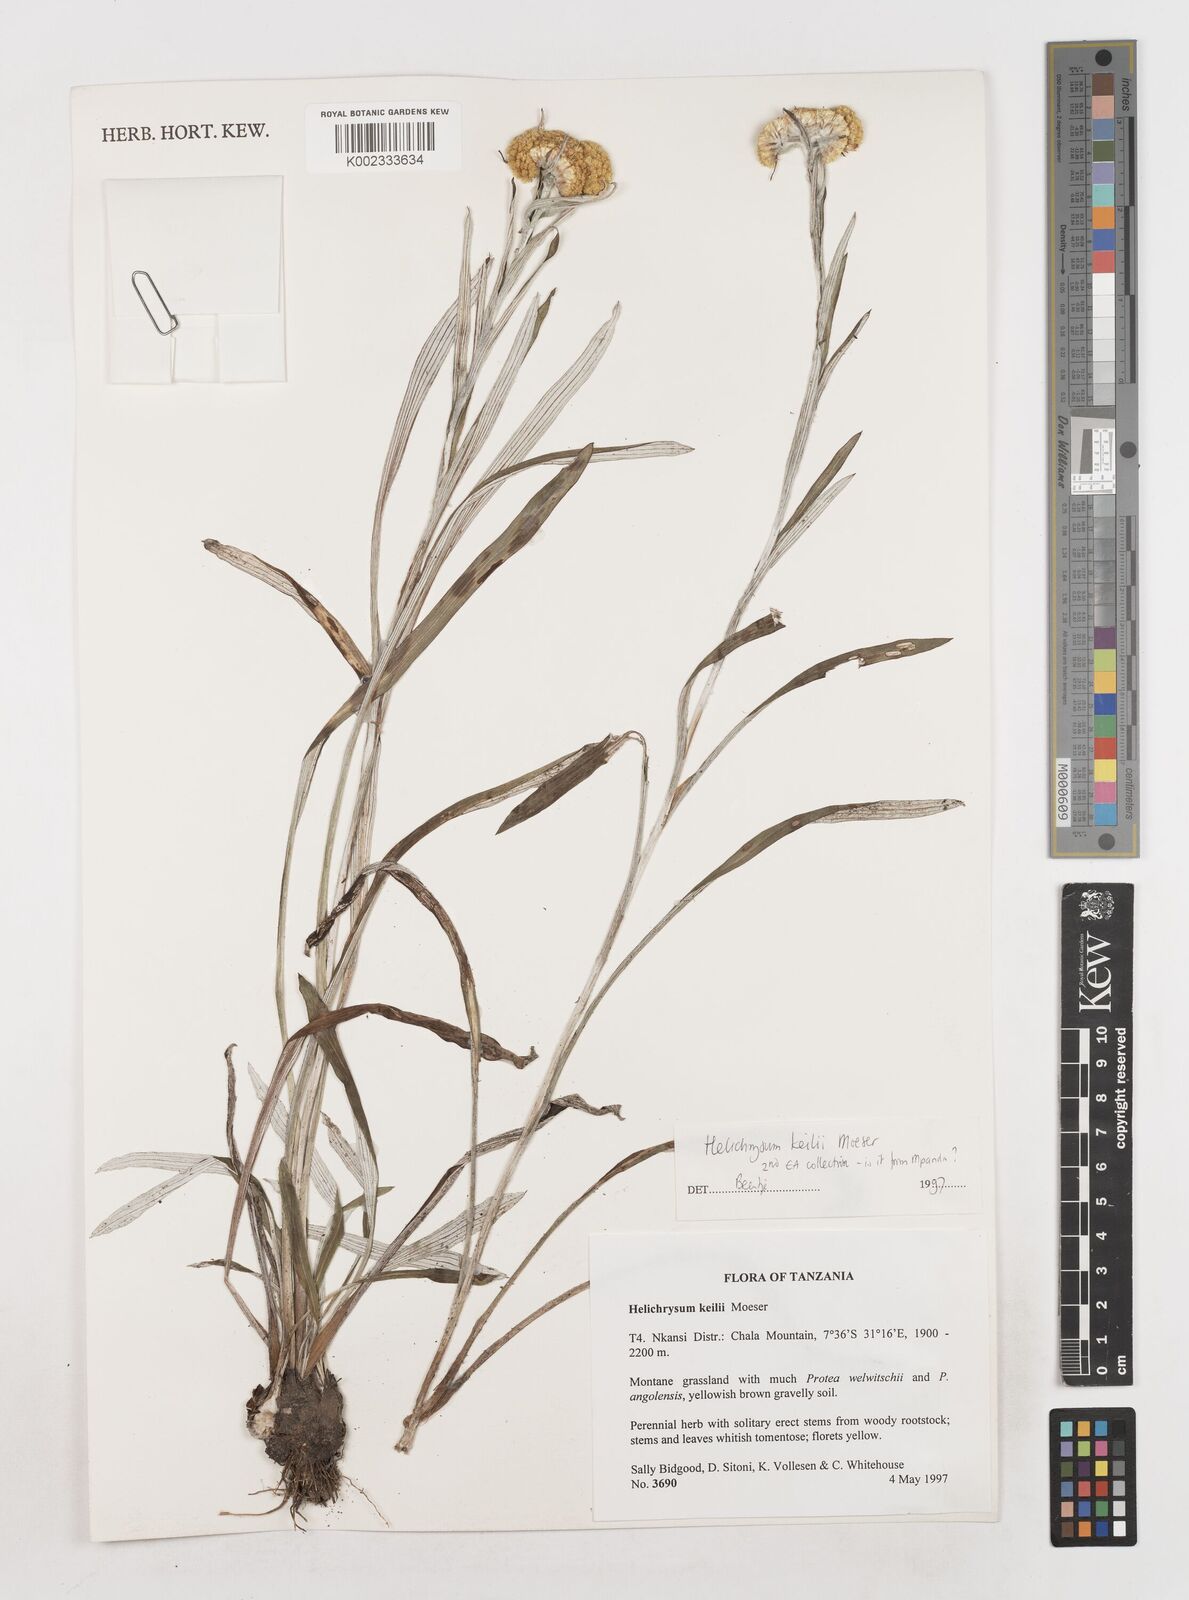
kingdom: Plantae
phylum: Tracheophyta
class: Magnoliopsida
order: Asterales
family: Asteraceae
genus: Helichrysum
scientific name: Helichrysum keilii
